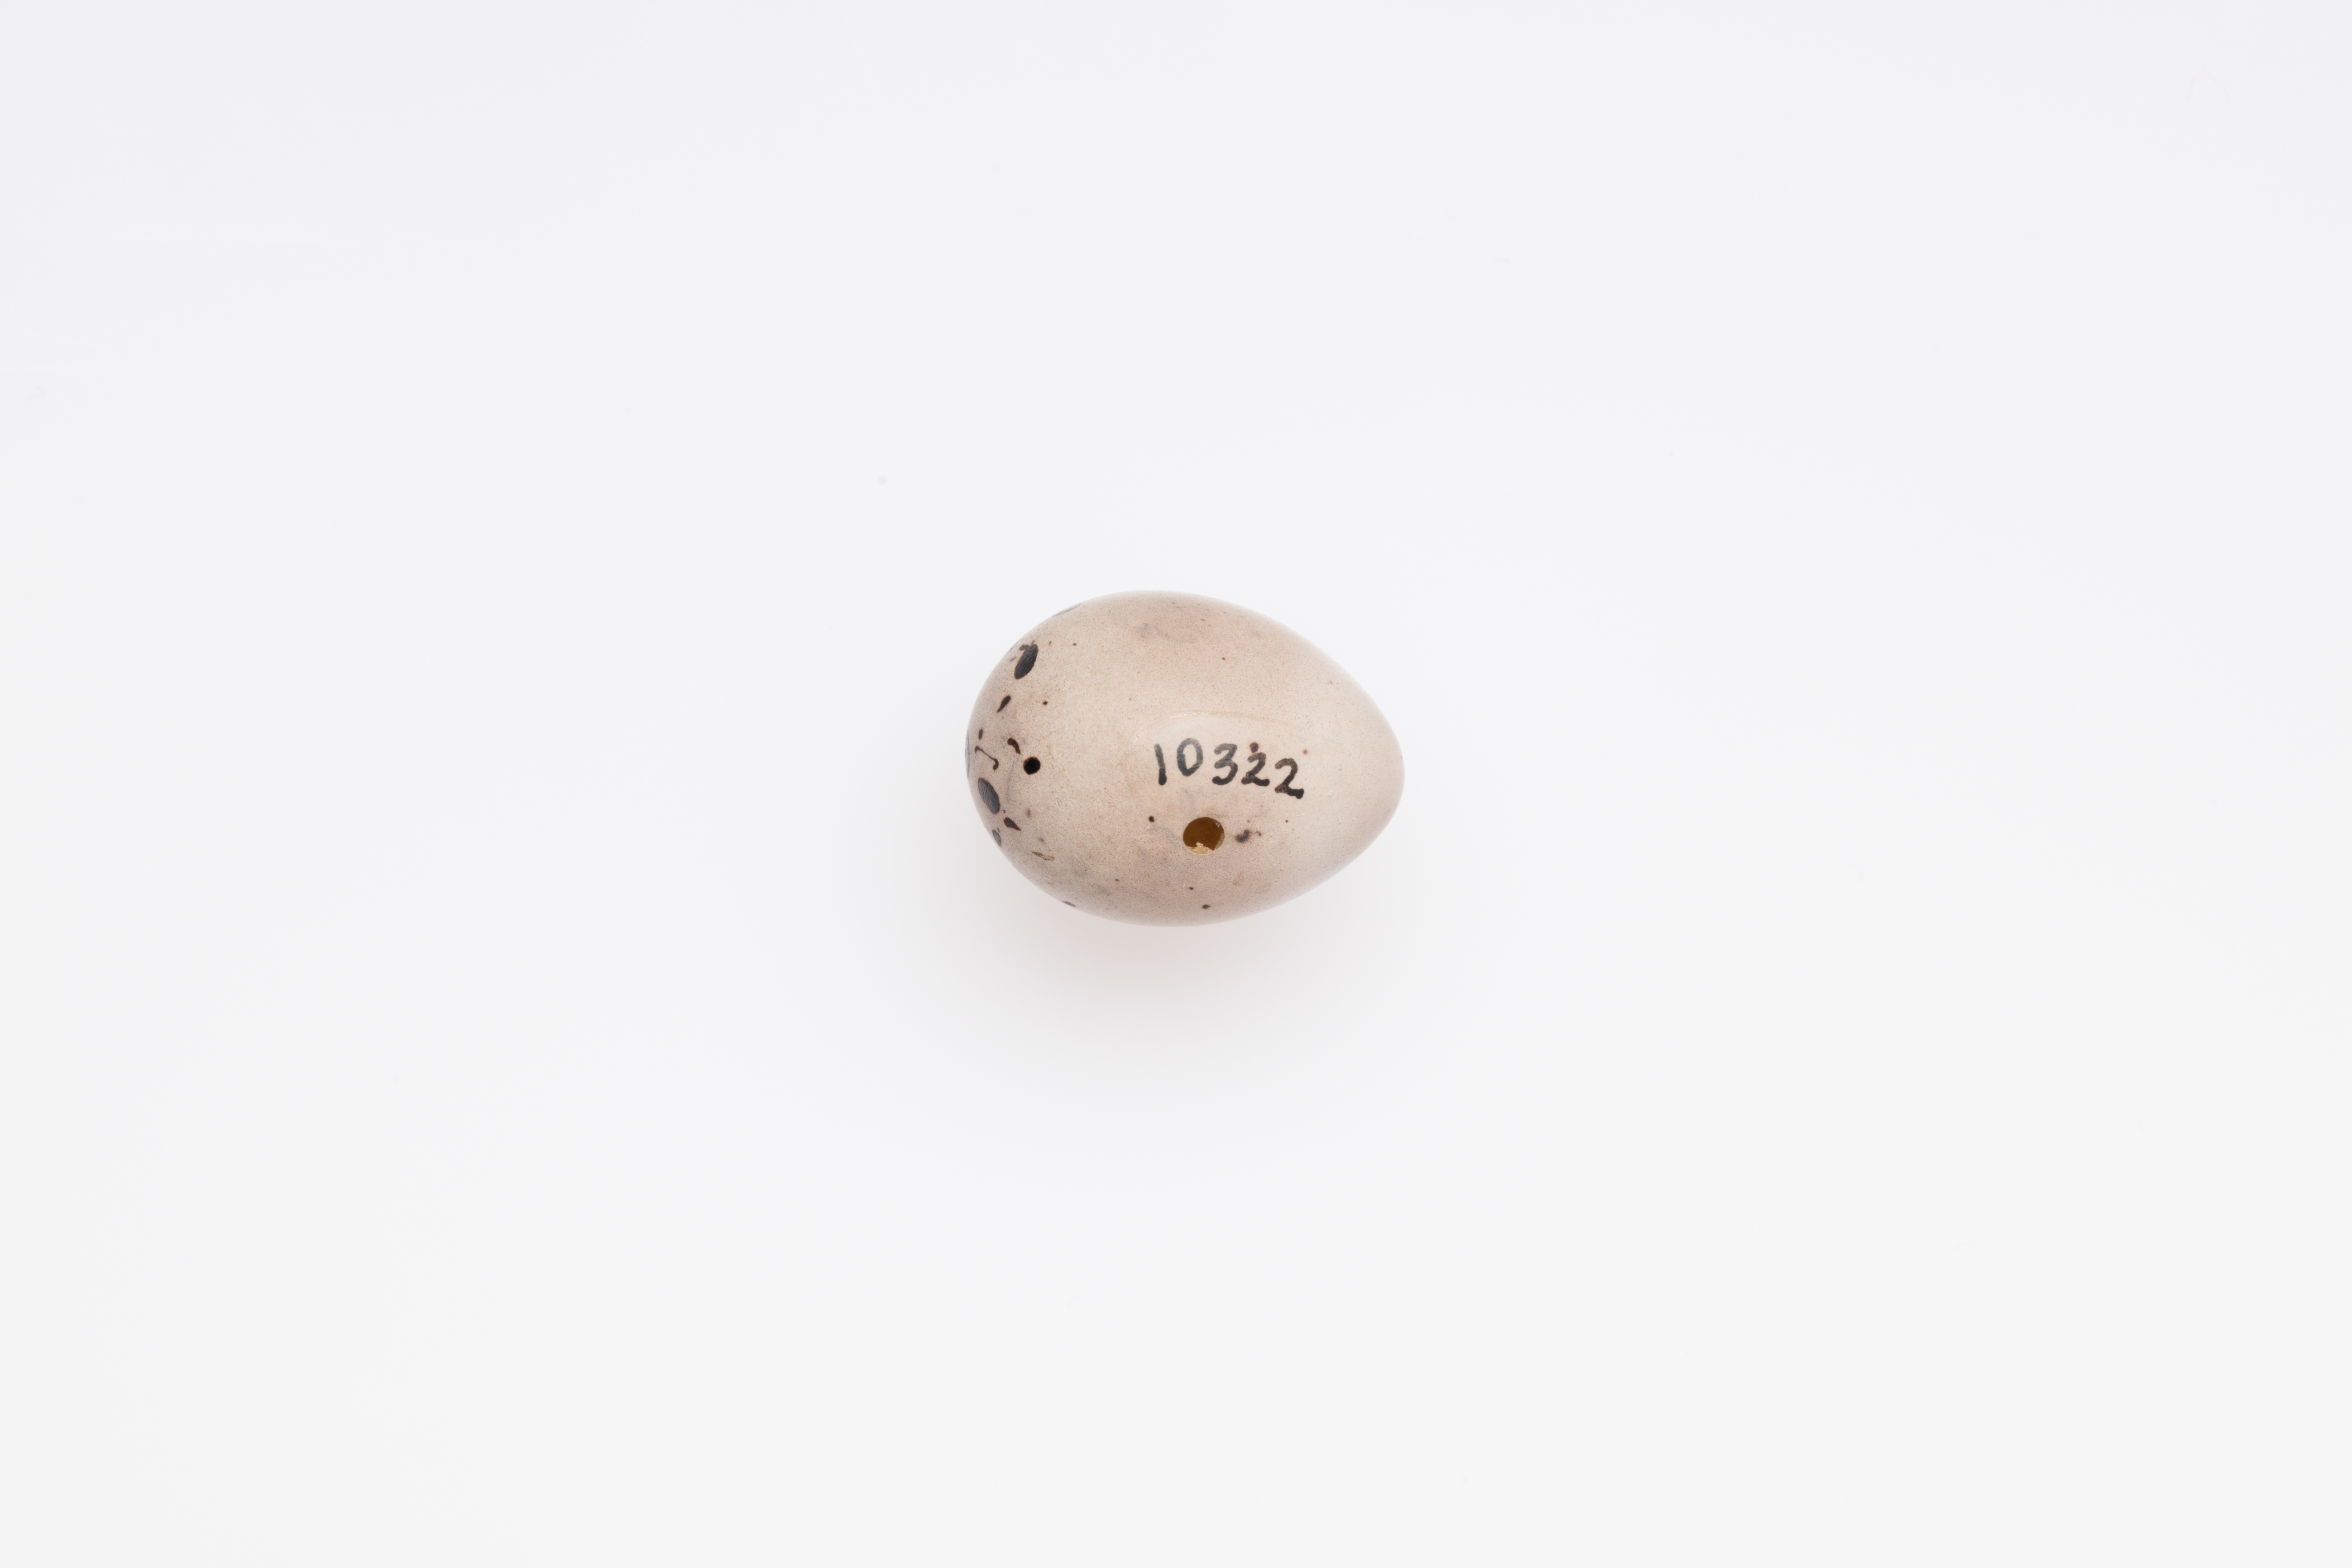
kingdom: Animalia
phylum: Chordata
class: Aves
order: Passeriformes
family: Emberizidae
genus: Emberiza
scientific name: Emberiza schoeniclus
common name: Reed bunting
